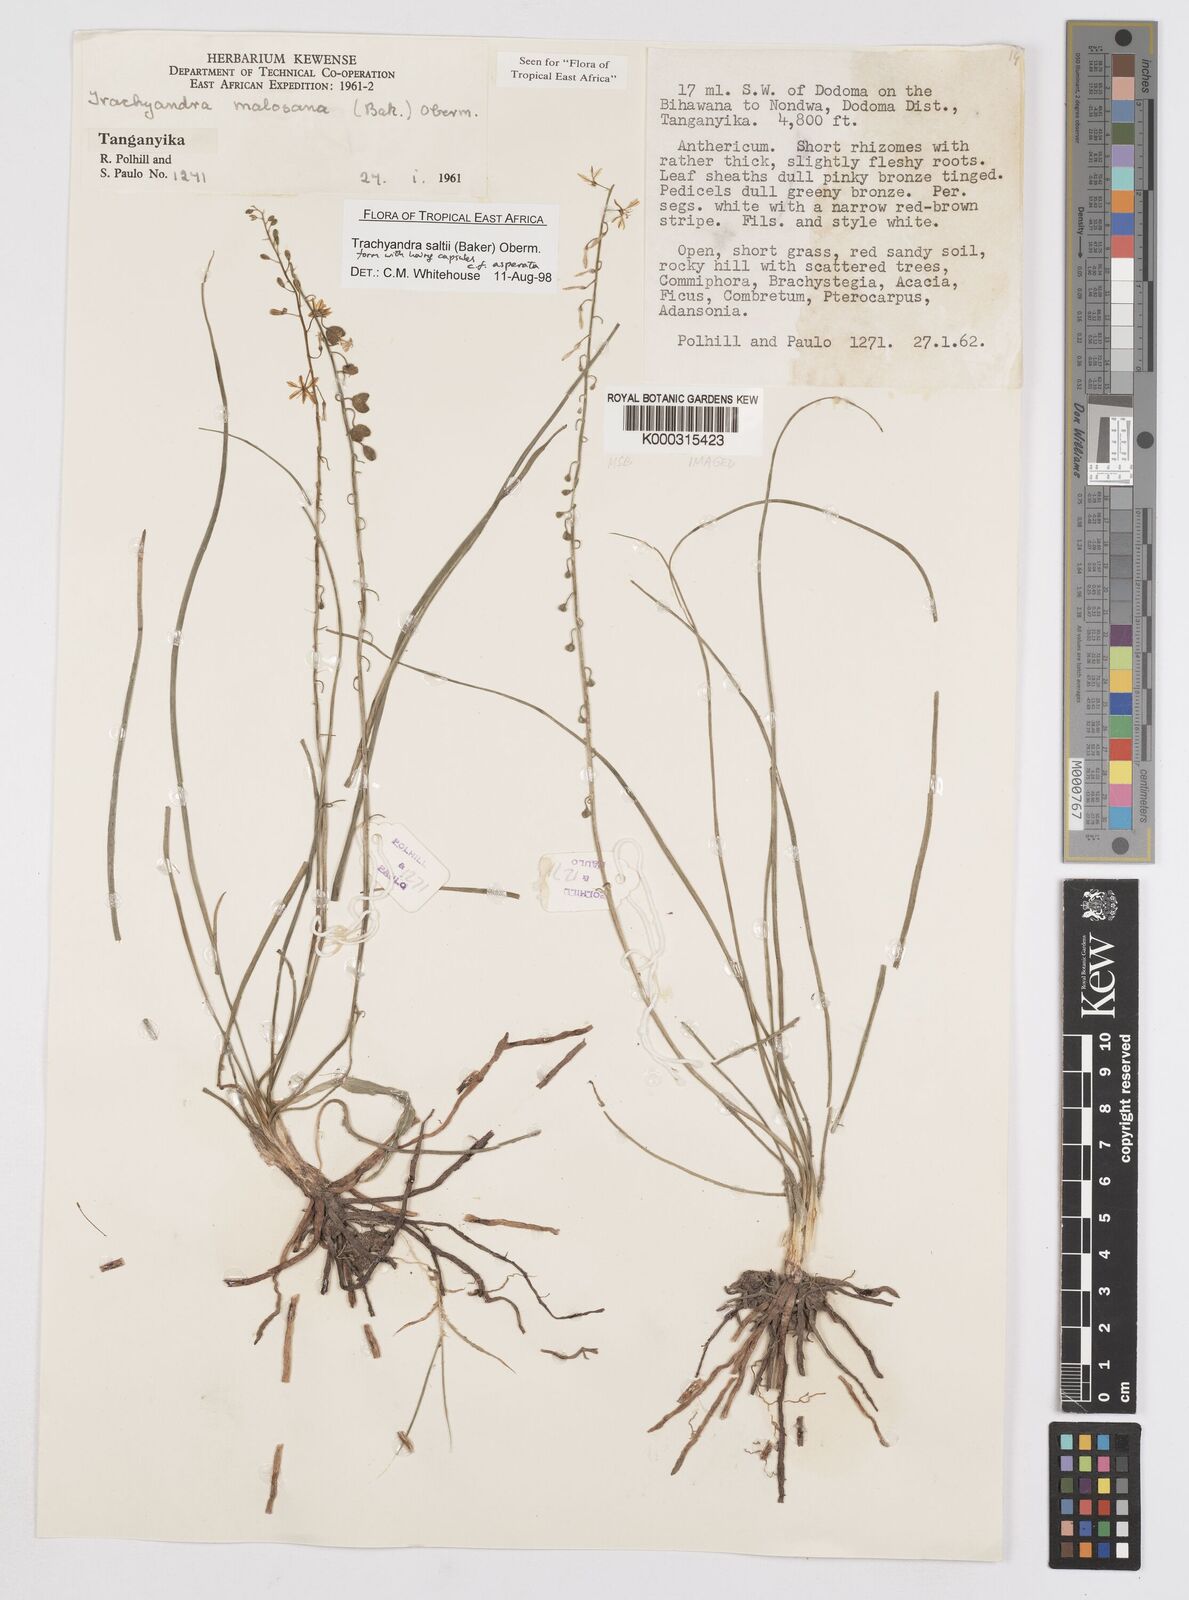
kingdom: Plantae
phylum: Tracheophyta
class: Liliopsida
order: Asparagales
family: Asphodelaceae
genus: Trachyandra
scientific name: Trachyandra malosana
